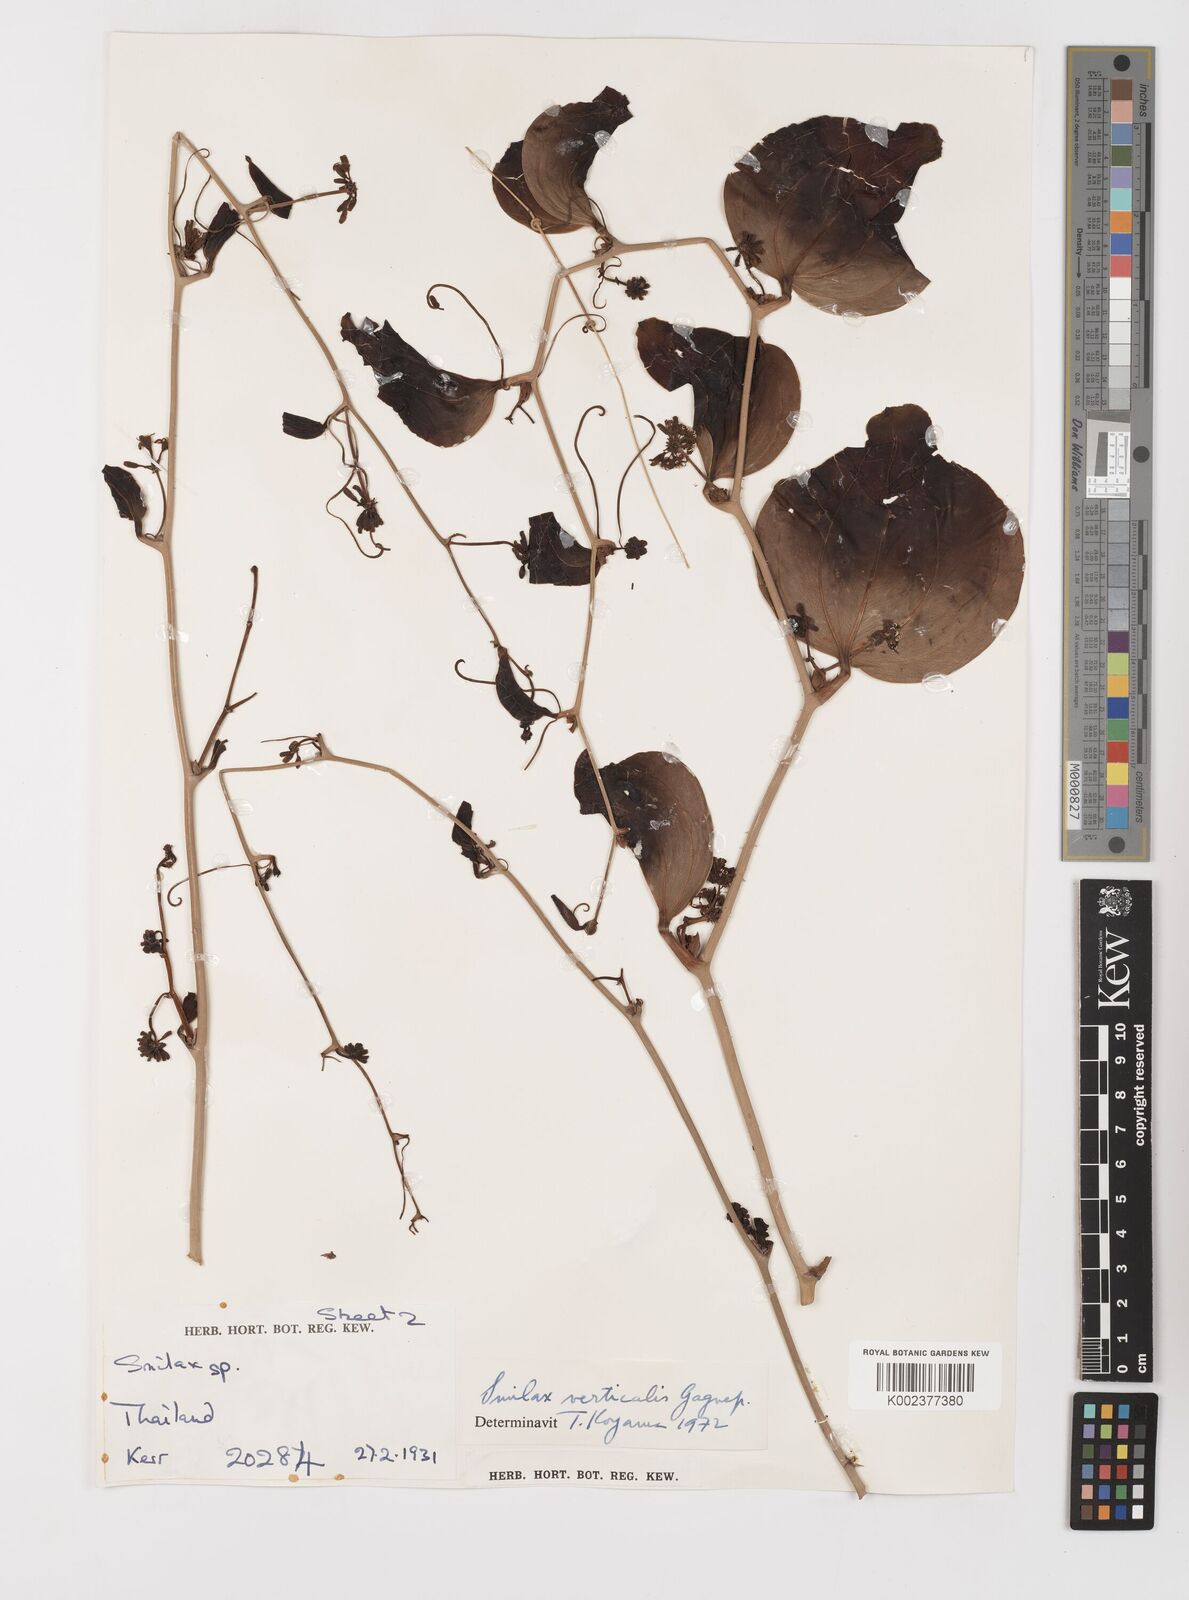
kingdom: Plantae
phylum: Tracheophyta
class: Liliopsida
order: Liliales
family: Smilacaceae
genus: Smilax
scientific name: Smilax verticalis
